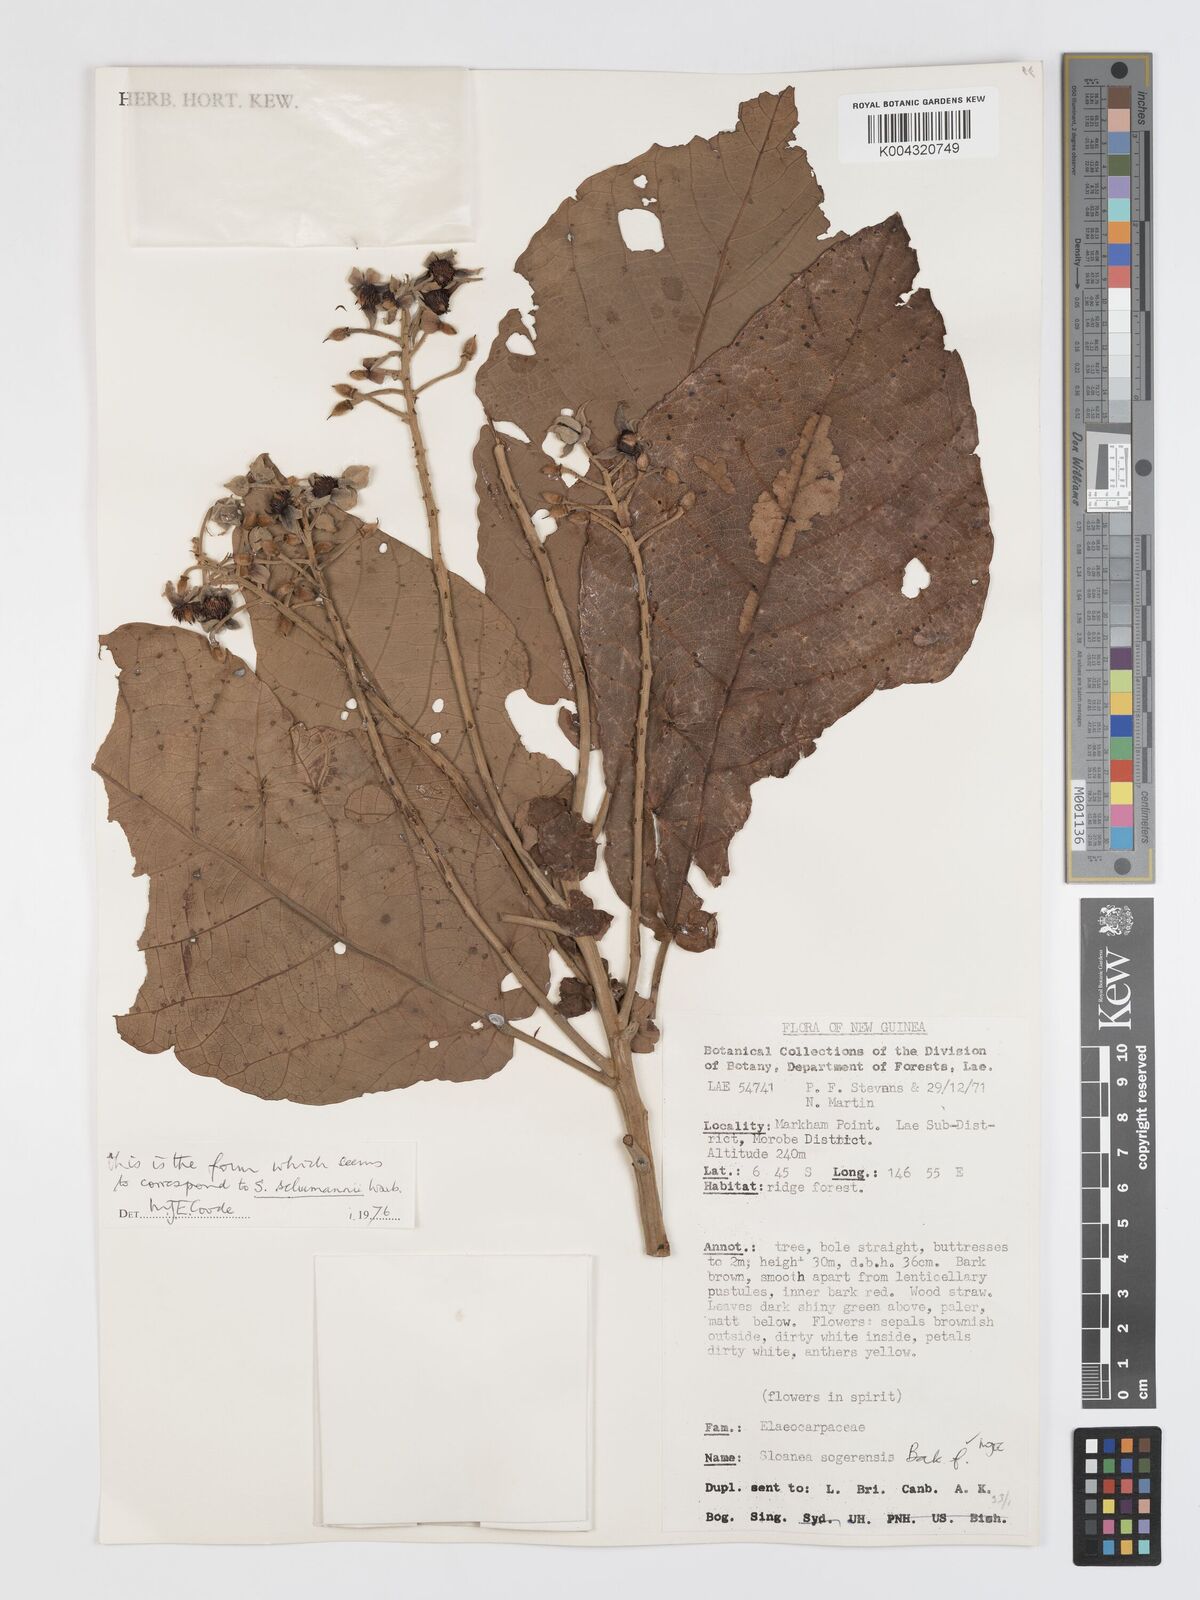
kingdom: Plantae
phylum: Tracheophyta
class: Magnoliopsida
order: Oxalidales
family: Elaeocarpaceae
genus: Sloanea
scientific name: Sloanea sogerensis
